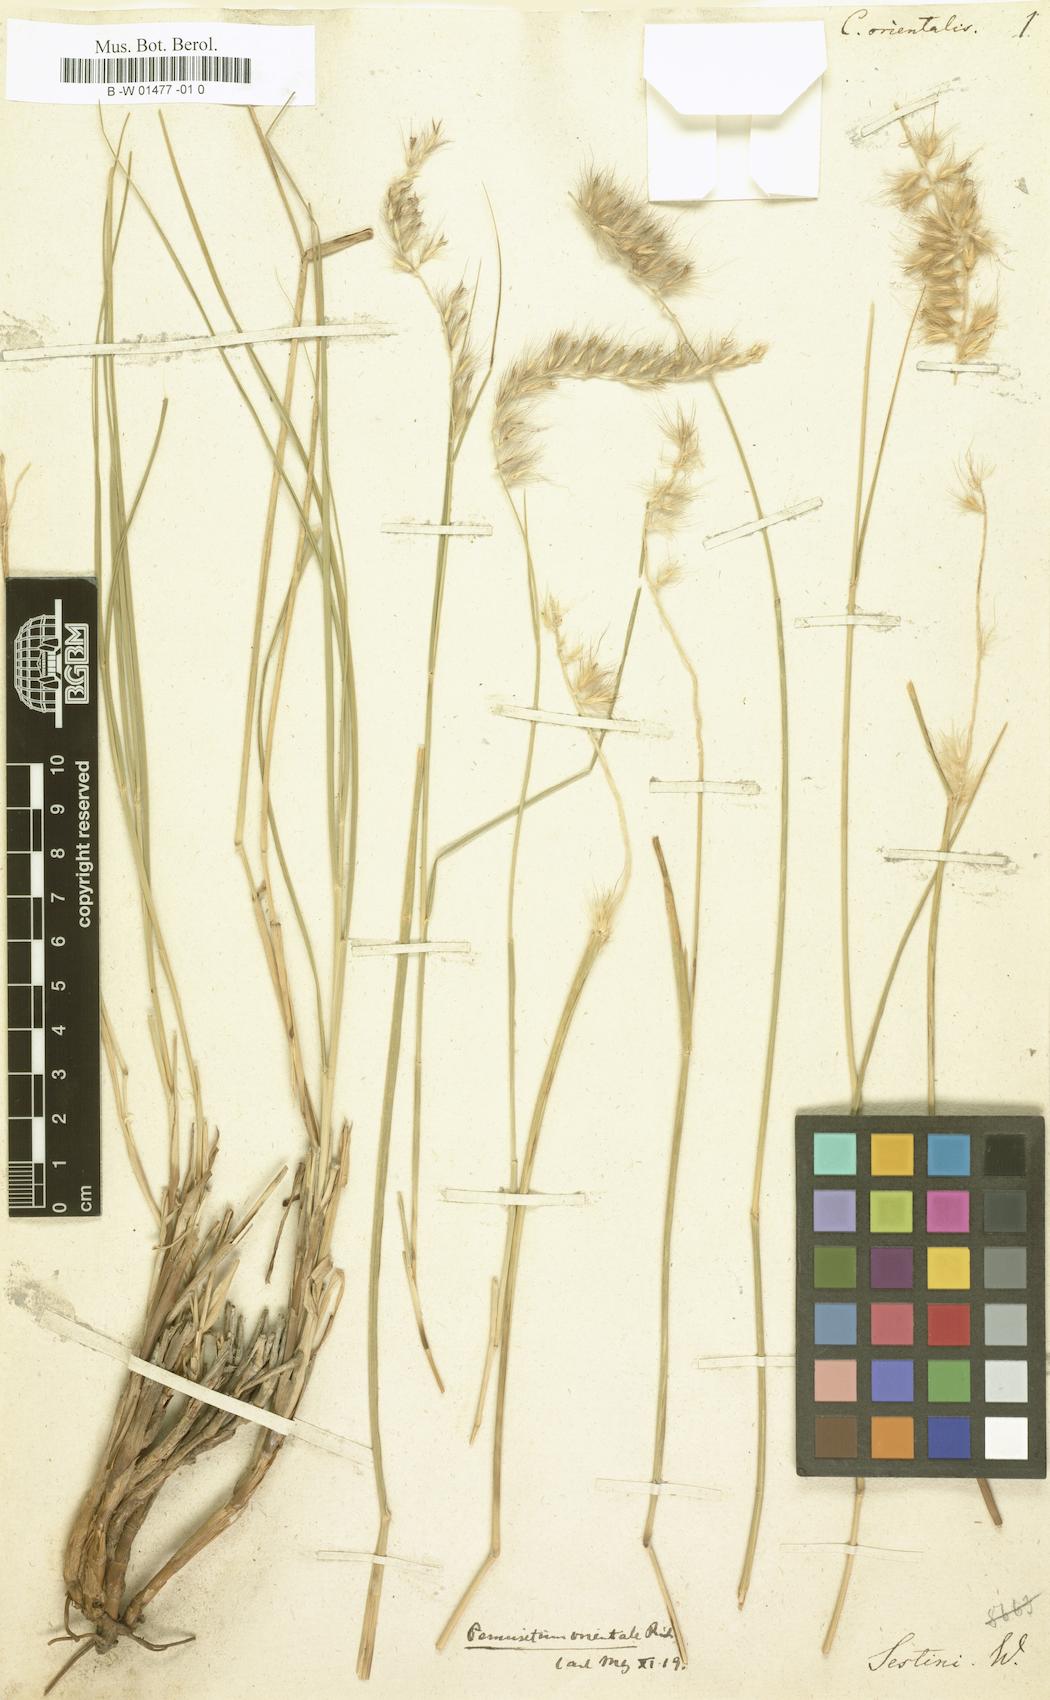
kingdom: Plantae
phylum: Tracheophyta
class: Liliopsida
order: Poales
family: Poaceae
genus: Cenchrus
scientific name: Cenchrus orientalis
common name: Oriental fountain grass
